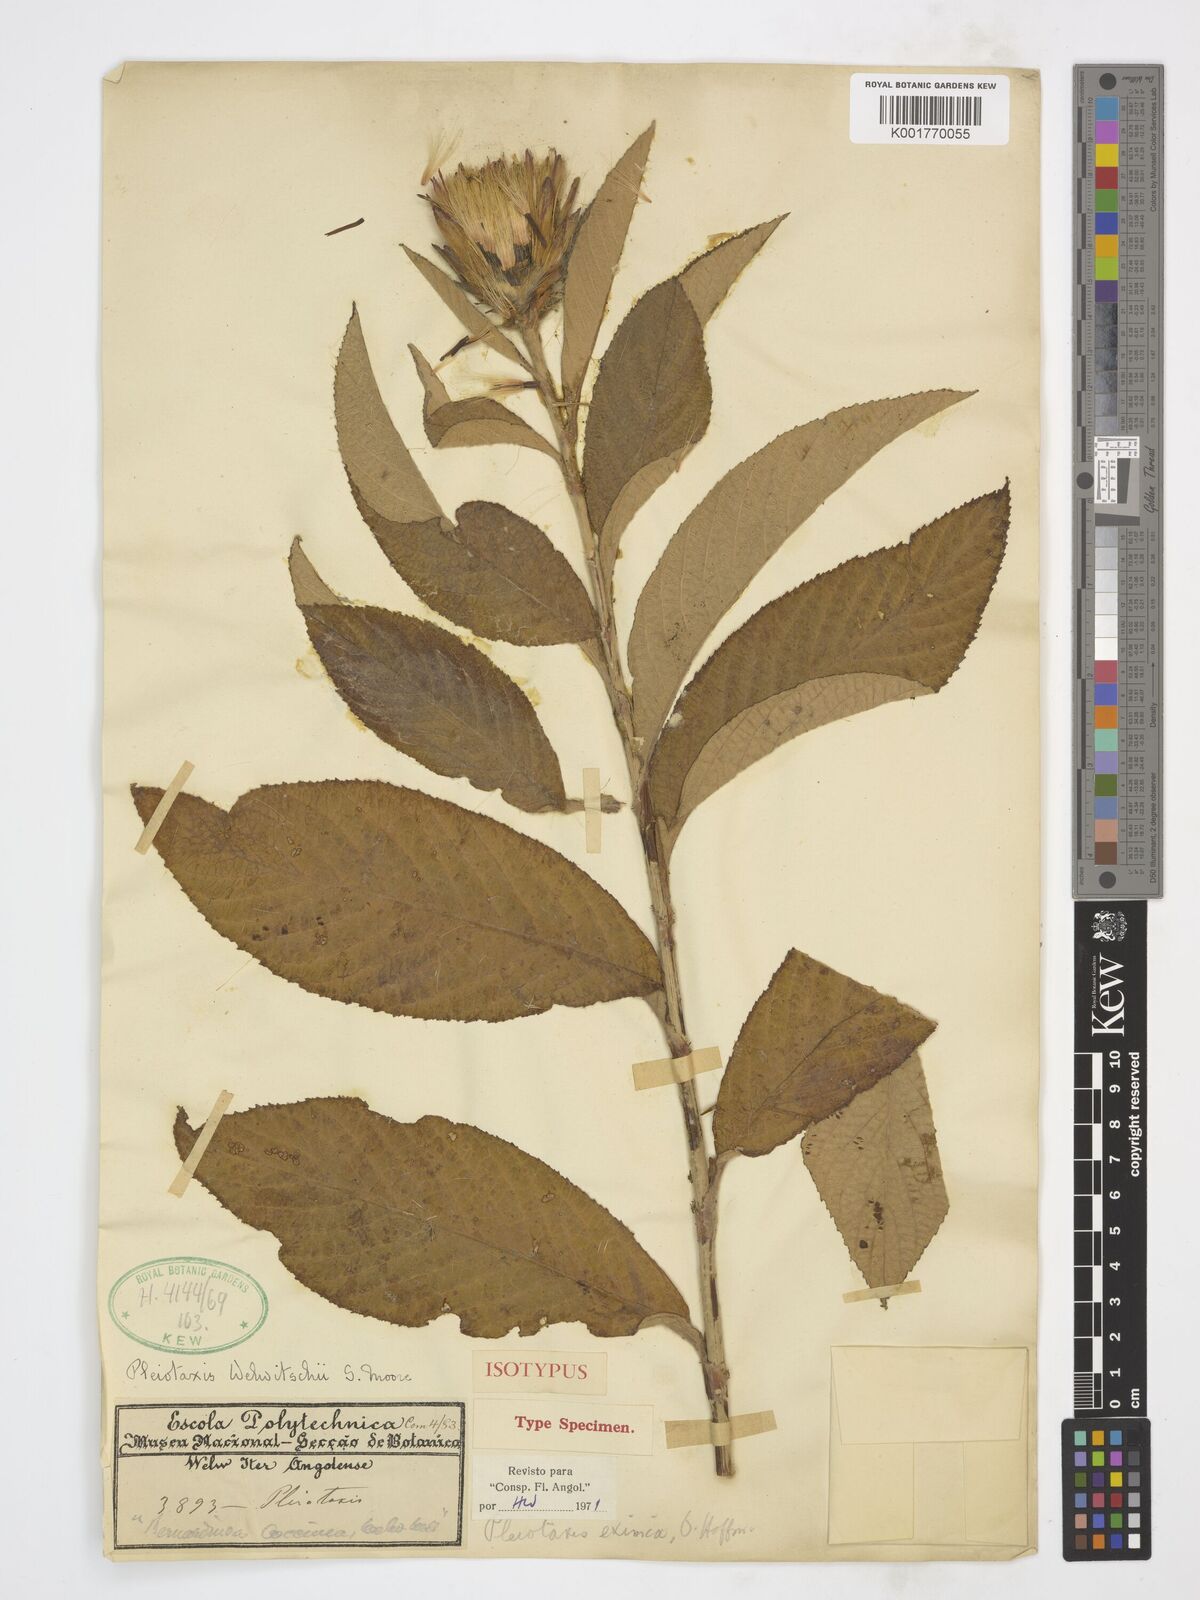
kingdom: Plantae
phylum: Tracheophyta
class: Magnoliopsida
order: Asterales
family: Asteraceae
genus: Pleiotaxis
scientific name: Pleiotaxis welwitschii
